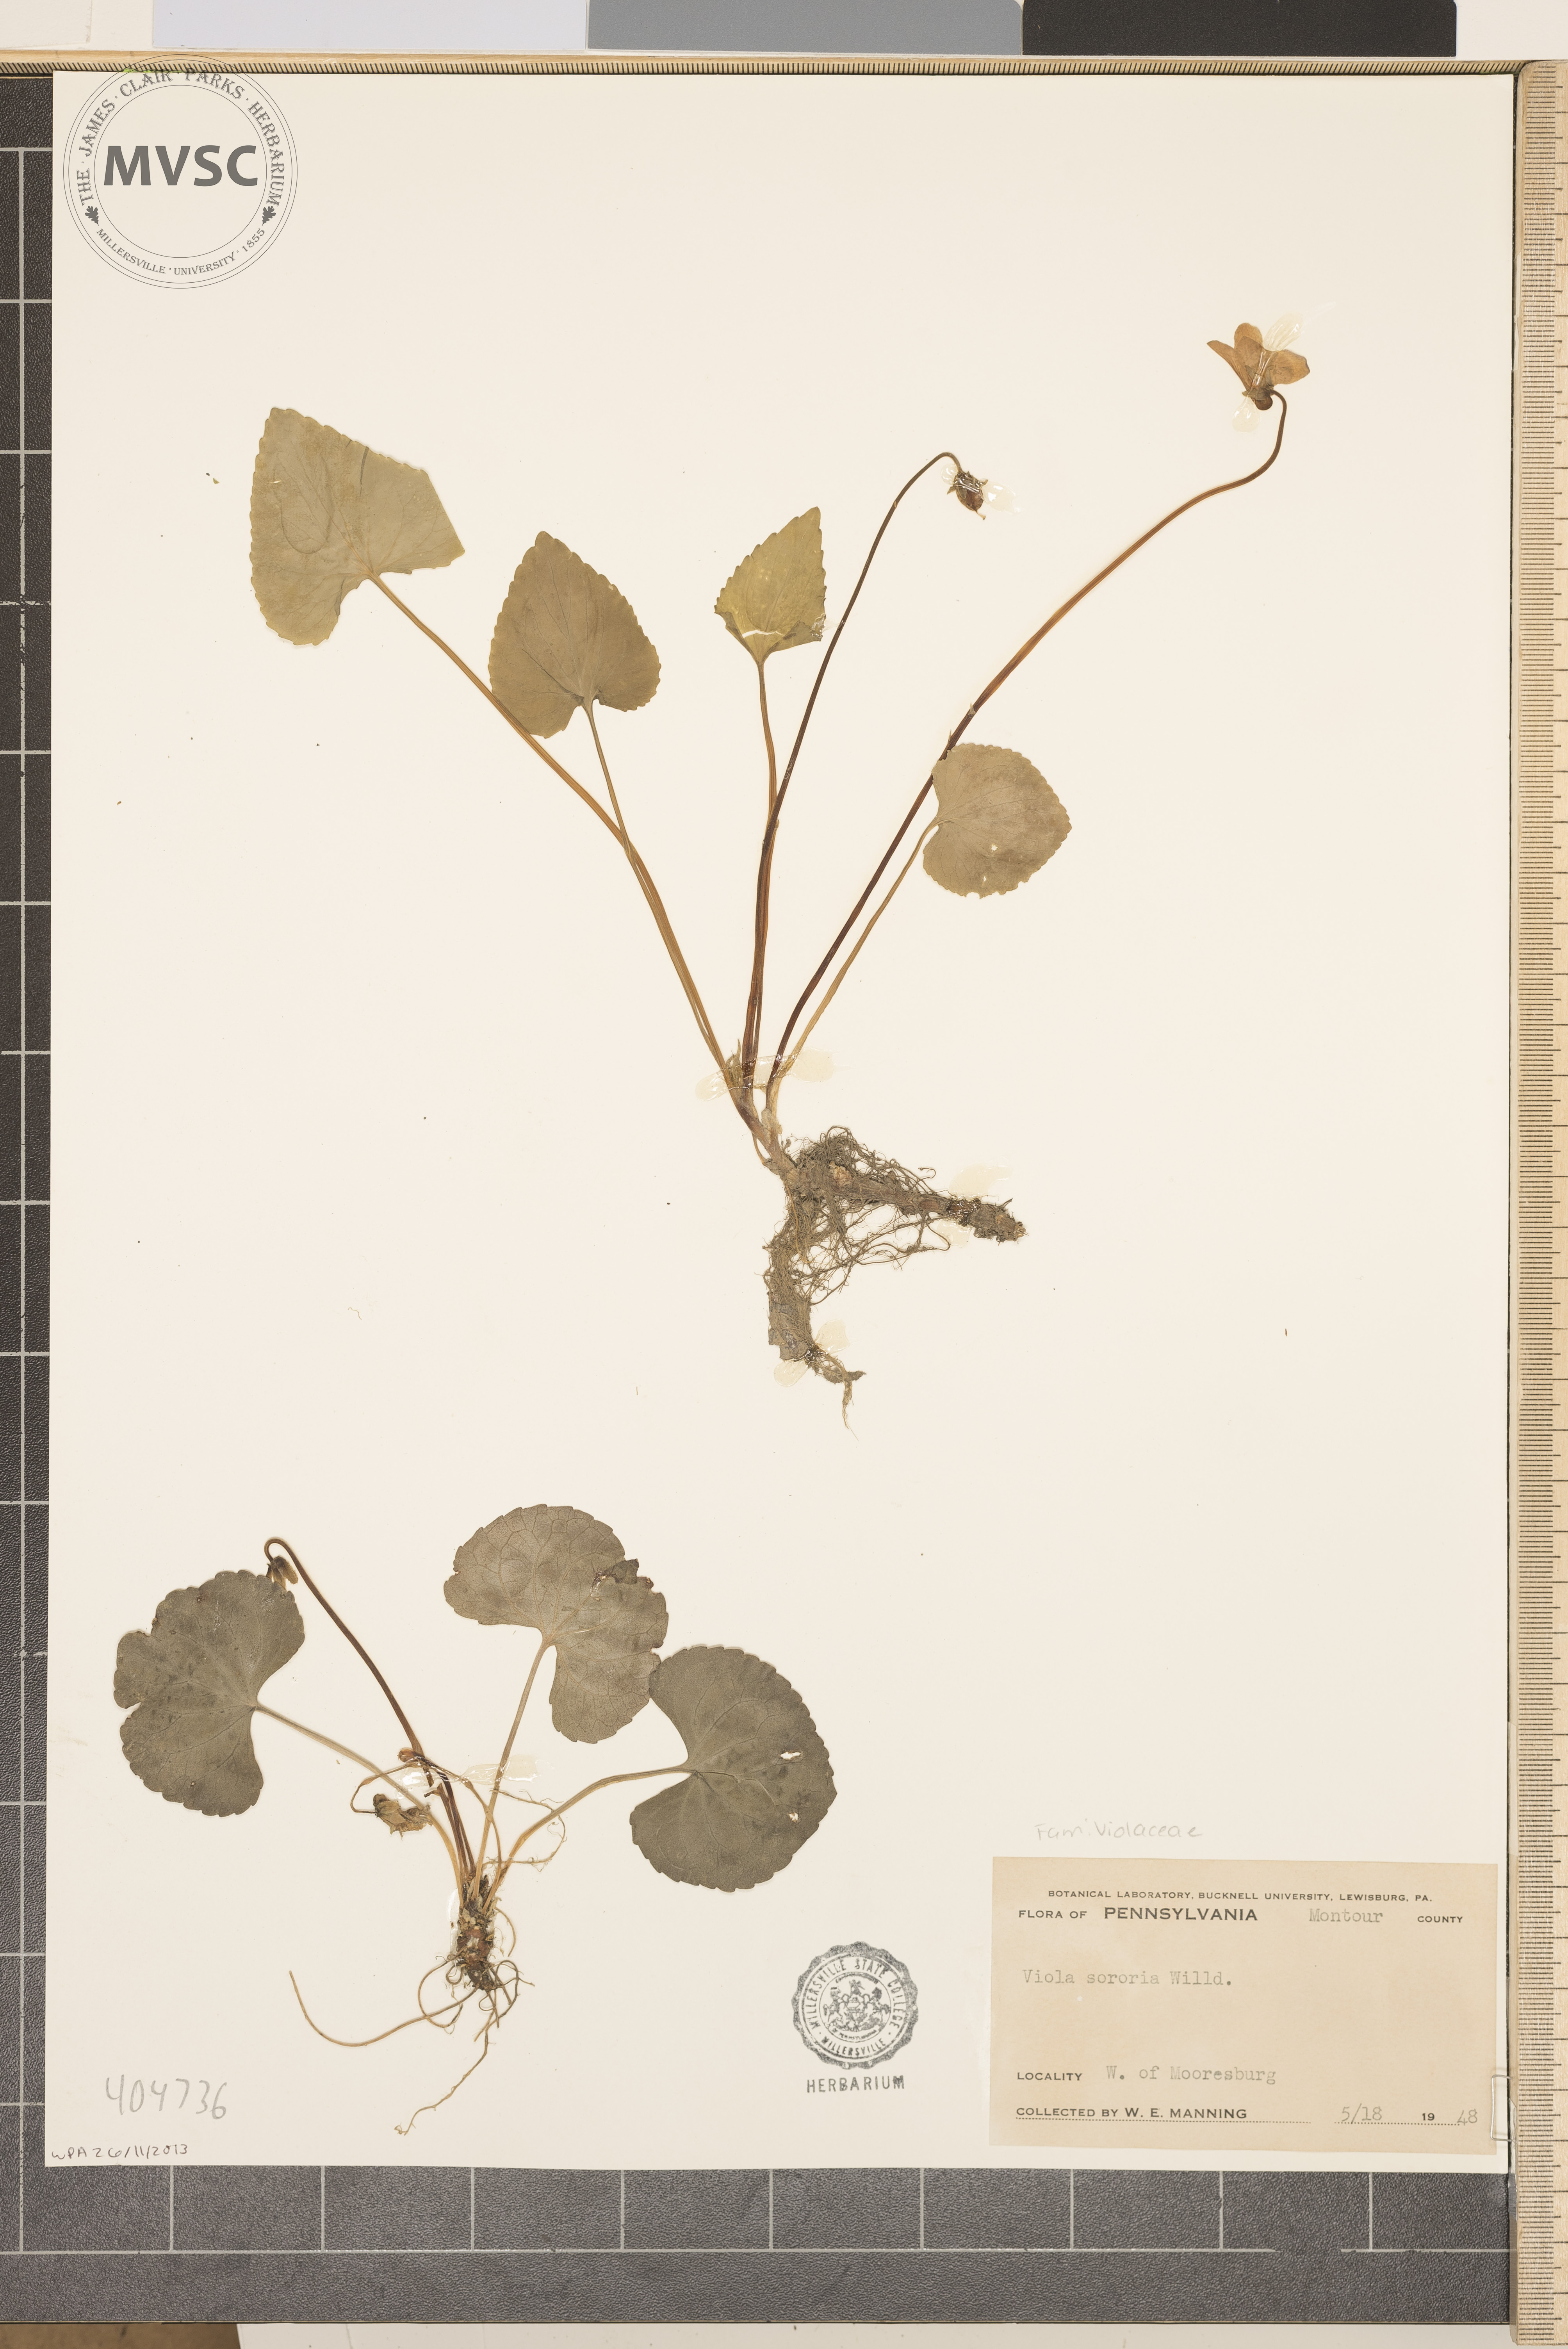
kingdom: Plantae
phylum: Tracheophyta
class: Magnoliopsida
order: Malpighiales
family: Violaceae
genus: Viola
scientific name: Viola sororia
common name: Dooryard violet
